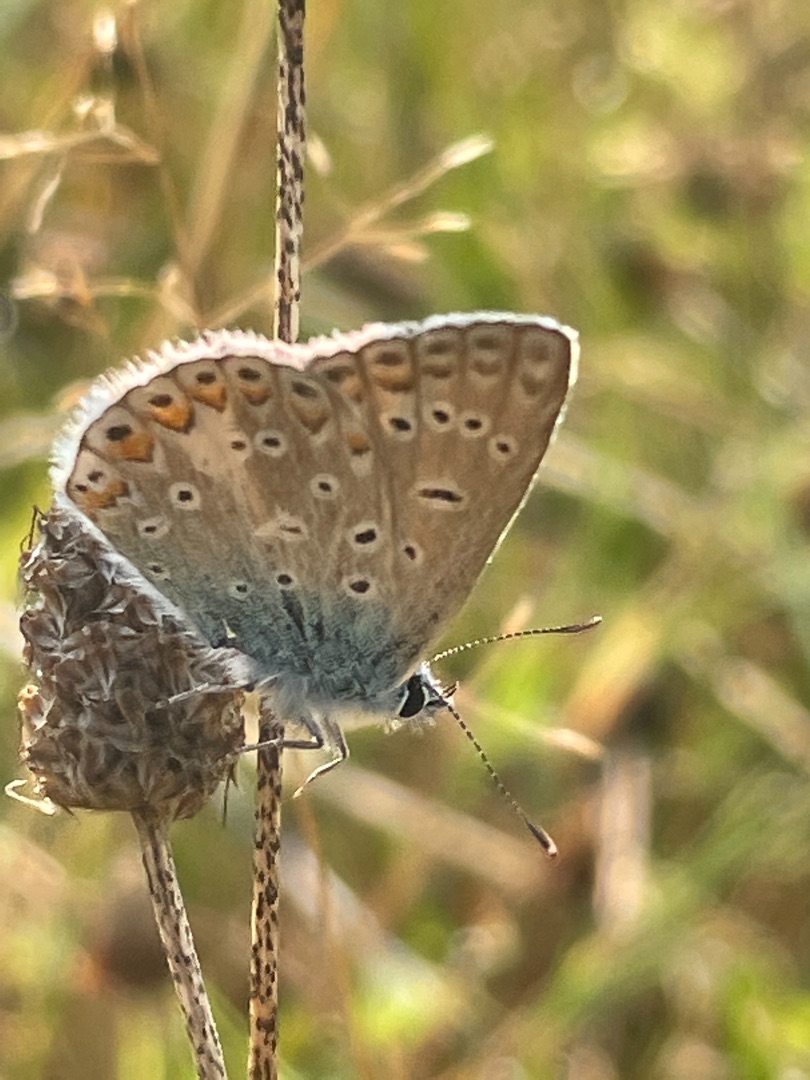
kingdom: Animalia
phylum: Arthropoda
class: Insecta
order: Lepidoptera
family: Lycaenidae
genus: Polyommatus
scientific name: Polyommatus icarus
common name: Almindelig blåfugl
